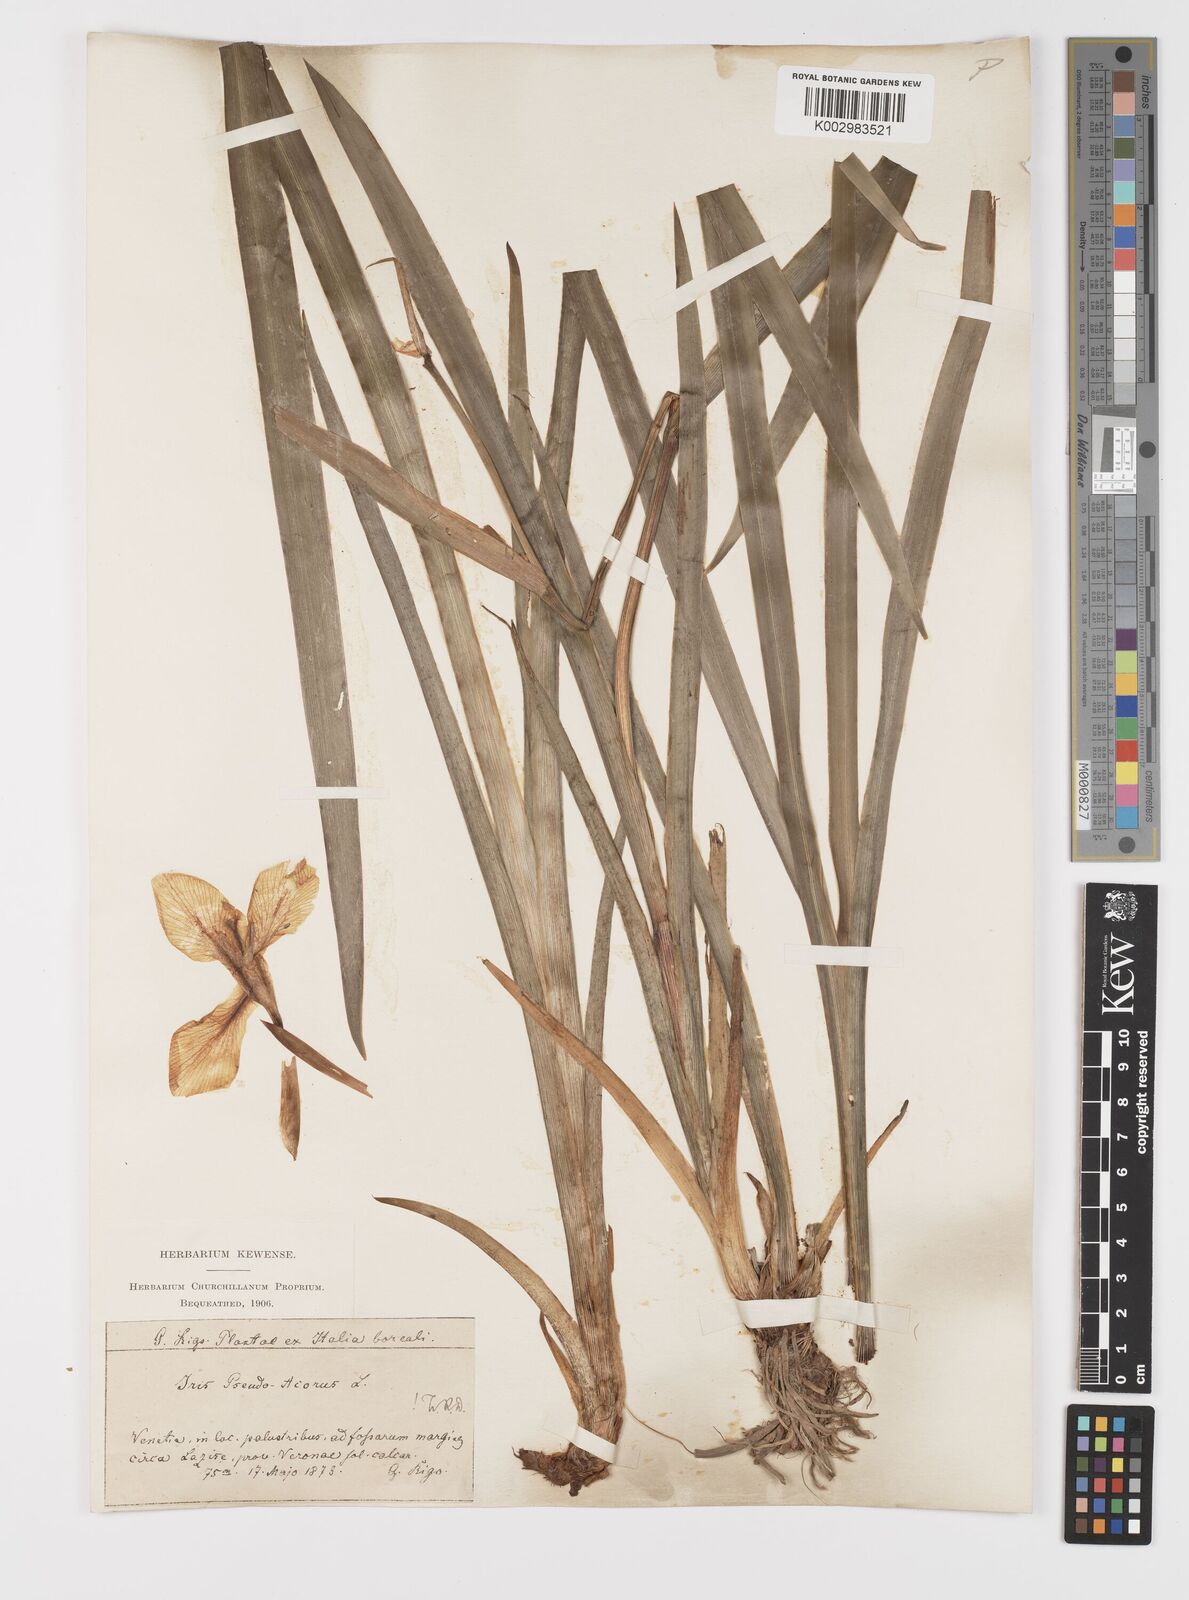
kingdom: Plantae
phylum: Tracheophyta
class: Liliopsida
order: Asparagales
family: Iridaceae
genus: Iris
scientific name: Iris pseudacorus
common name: Yellow flag
